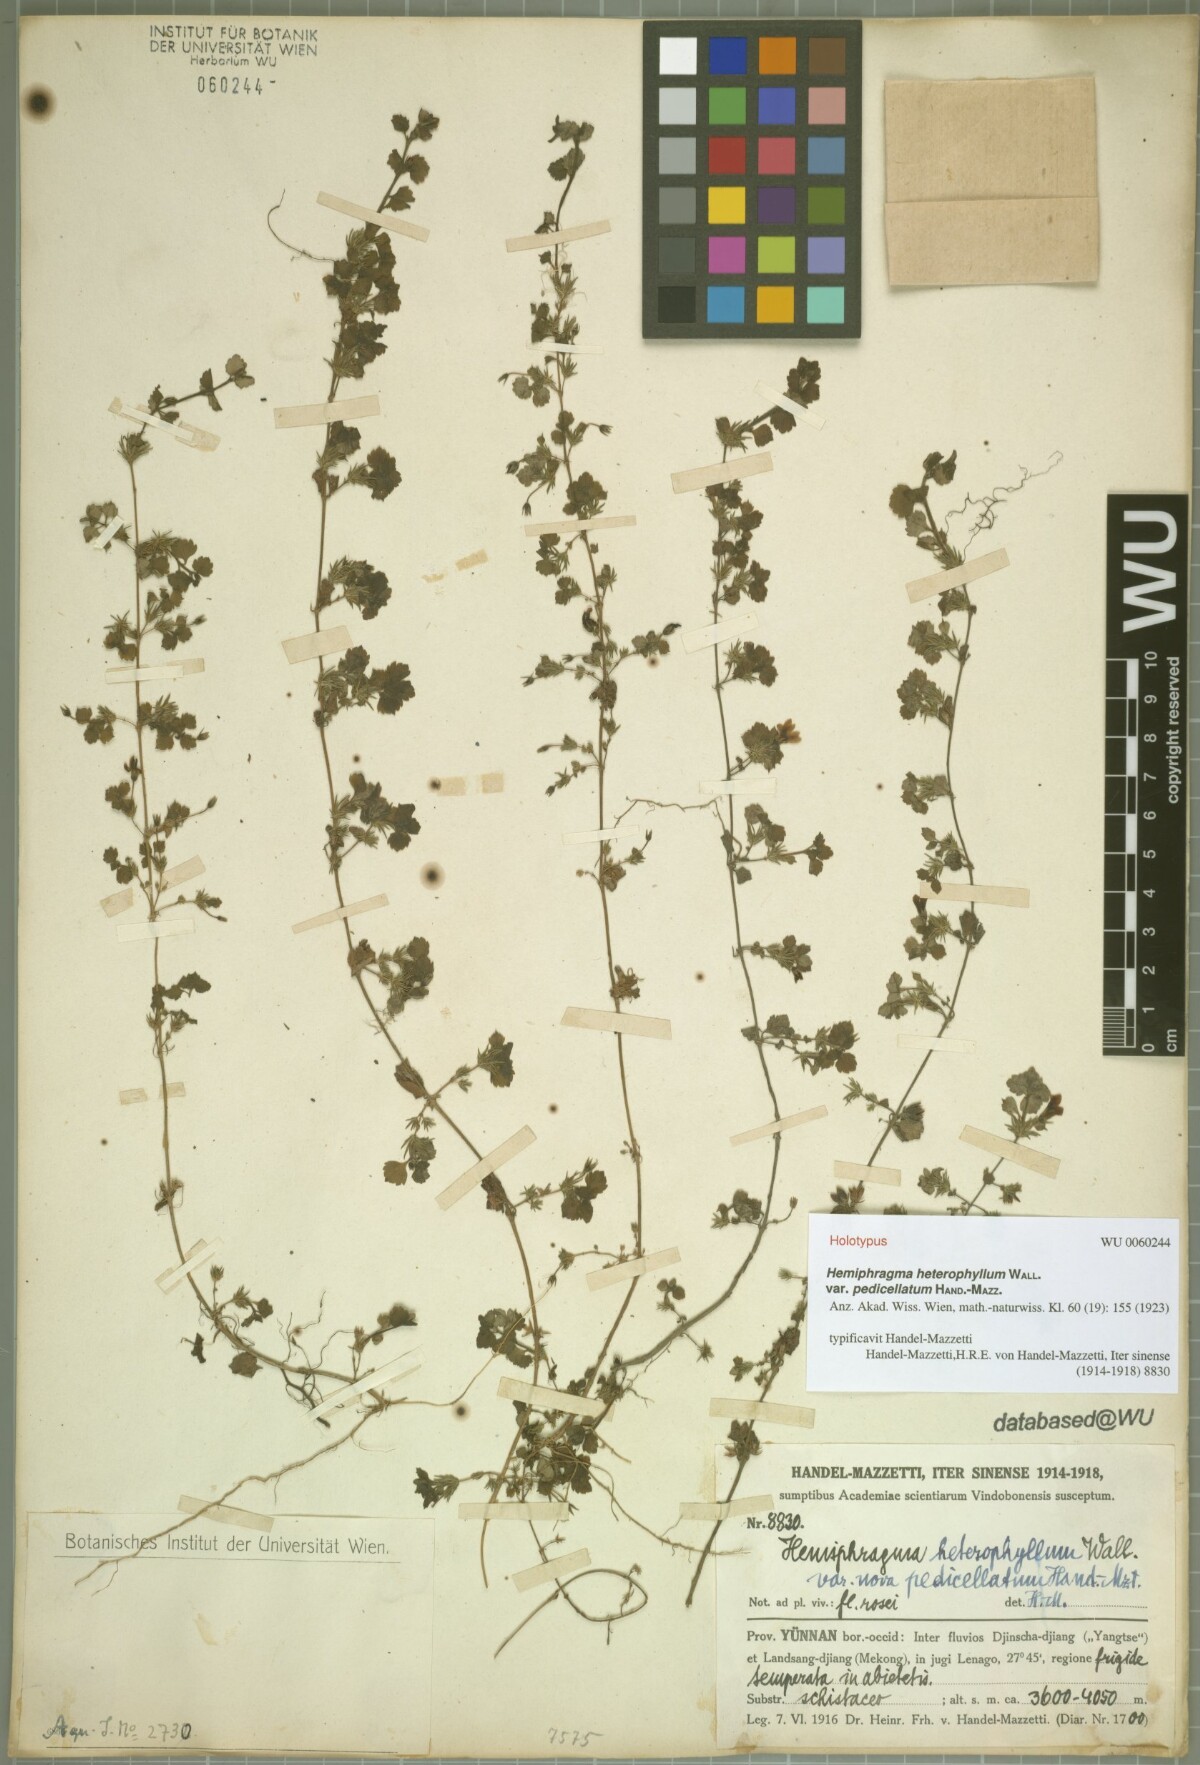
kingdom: Plantae
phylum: Tracheophyta
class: Magnoliopsida
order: Lamiales
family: Plantaginaceae
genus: Hemiphragma
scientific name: Hemiphragma heterophyllum
